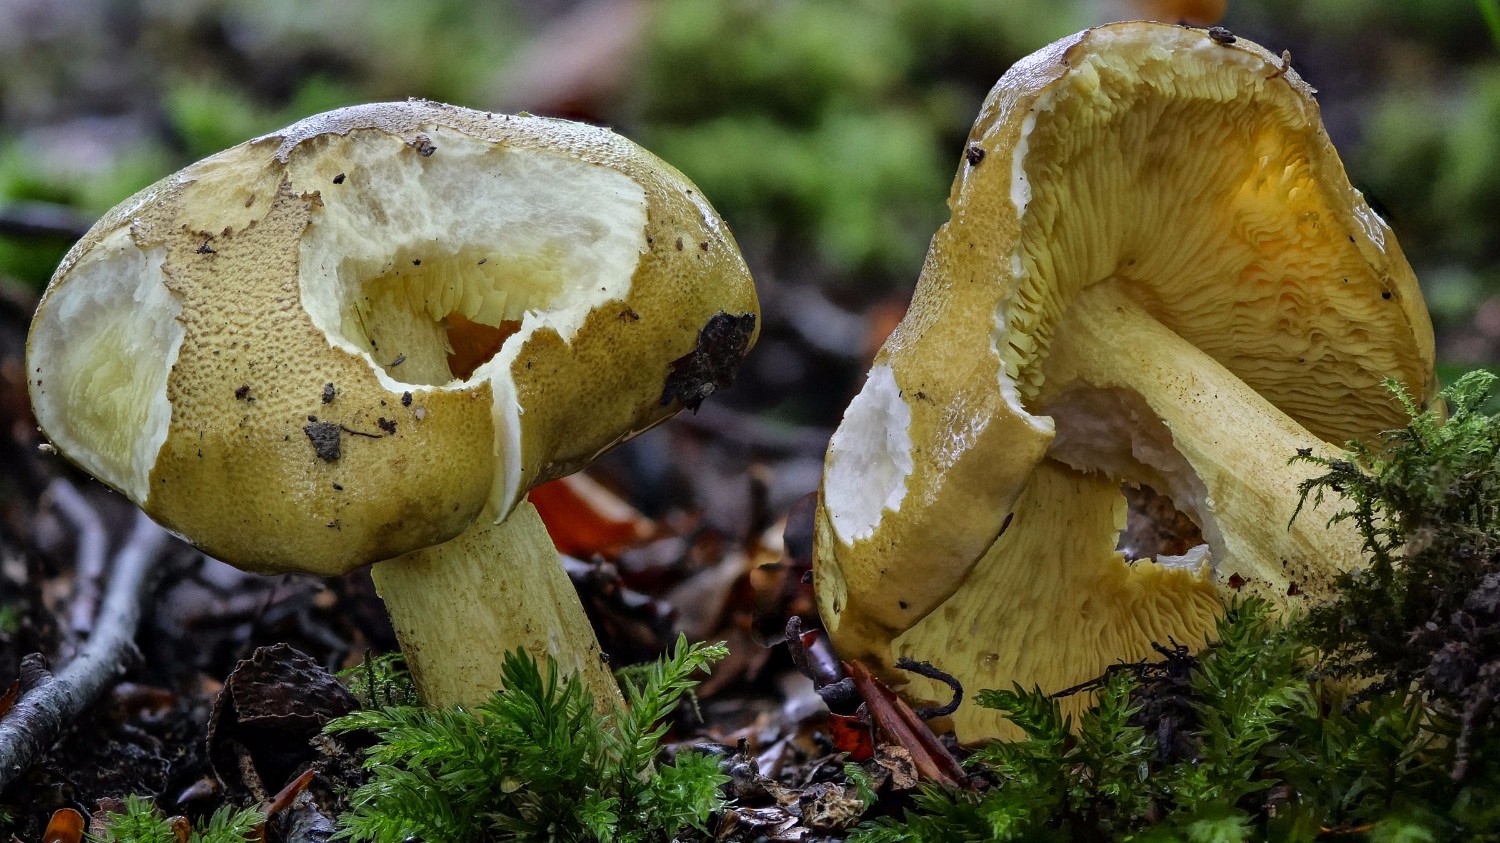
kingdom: Fungi
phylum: Basidiomycota
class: Agaricomycetes
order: Agaricales
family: Tricholomataceae
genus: Tricholoma
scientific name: Tricholoma frondosae
